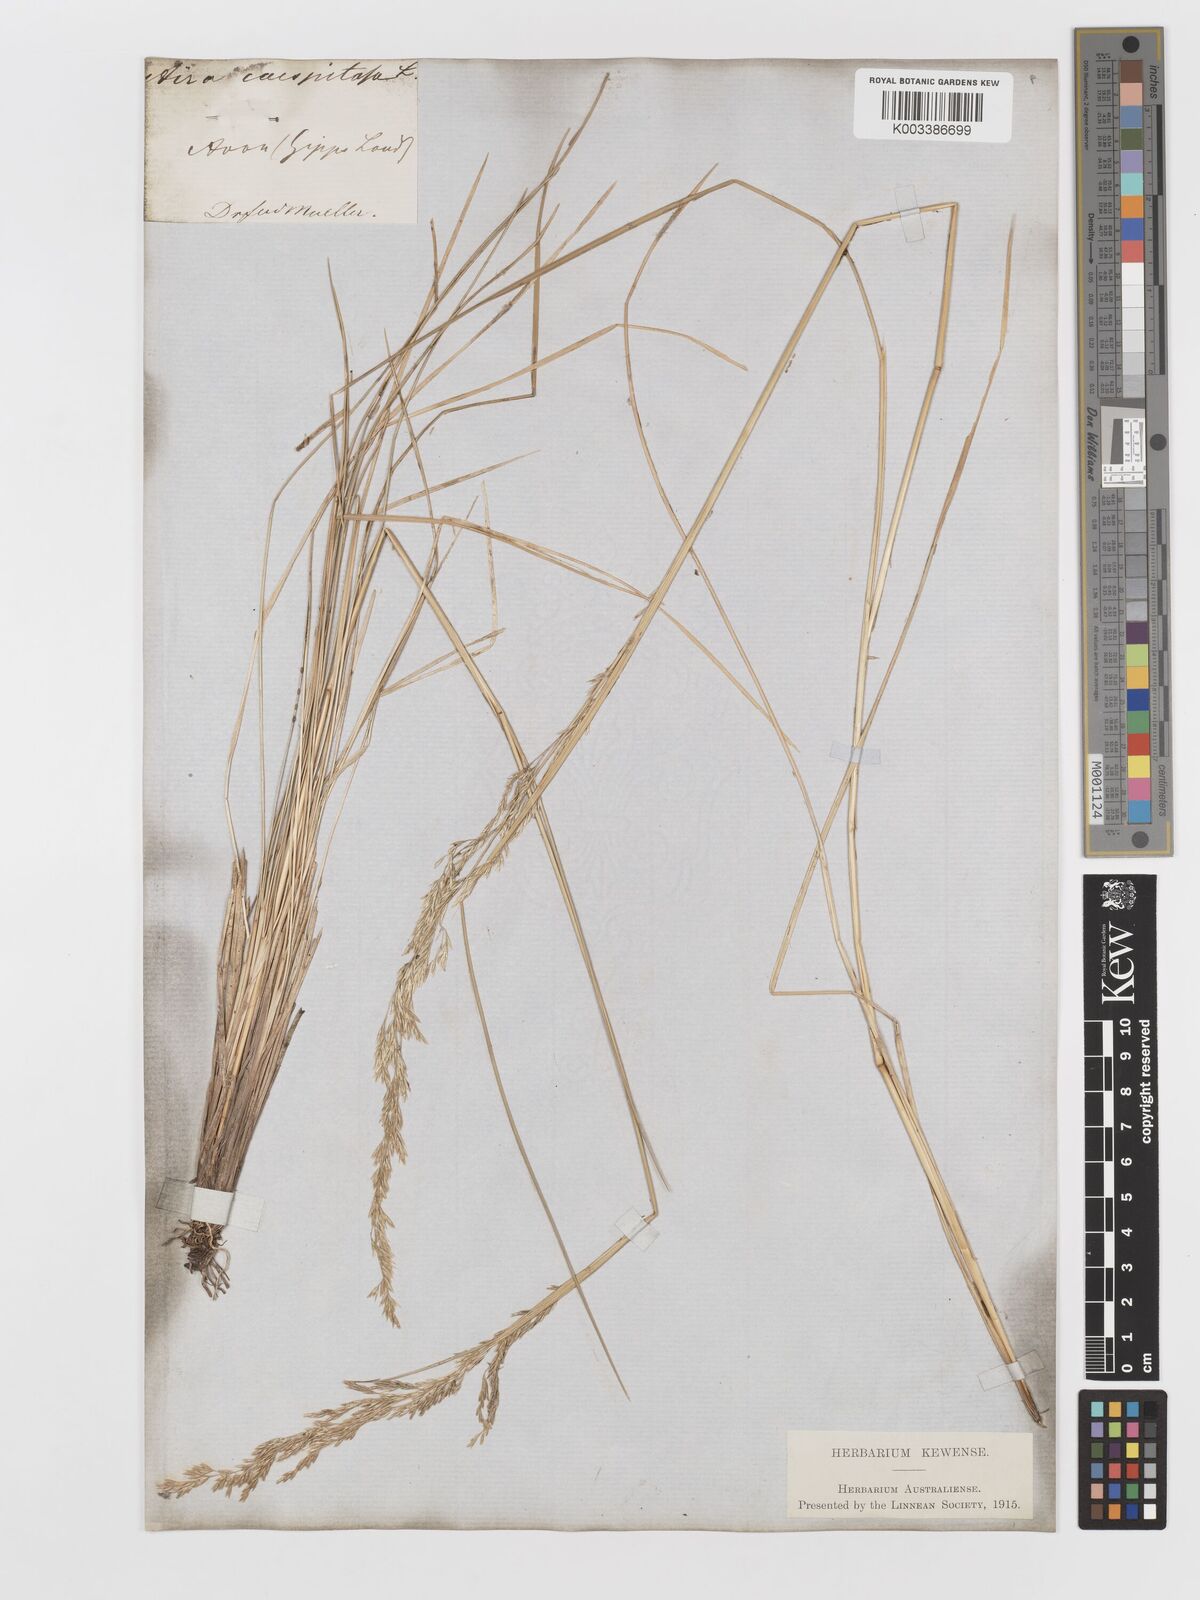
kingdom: Plantae
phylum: Tracheophyta
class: Liliopsida
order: Poales
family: Poaceae
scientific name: Poaceae
